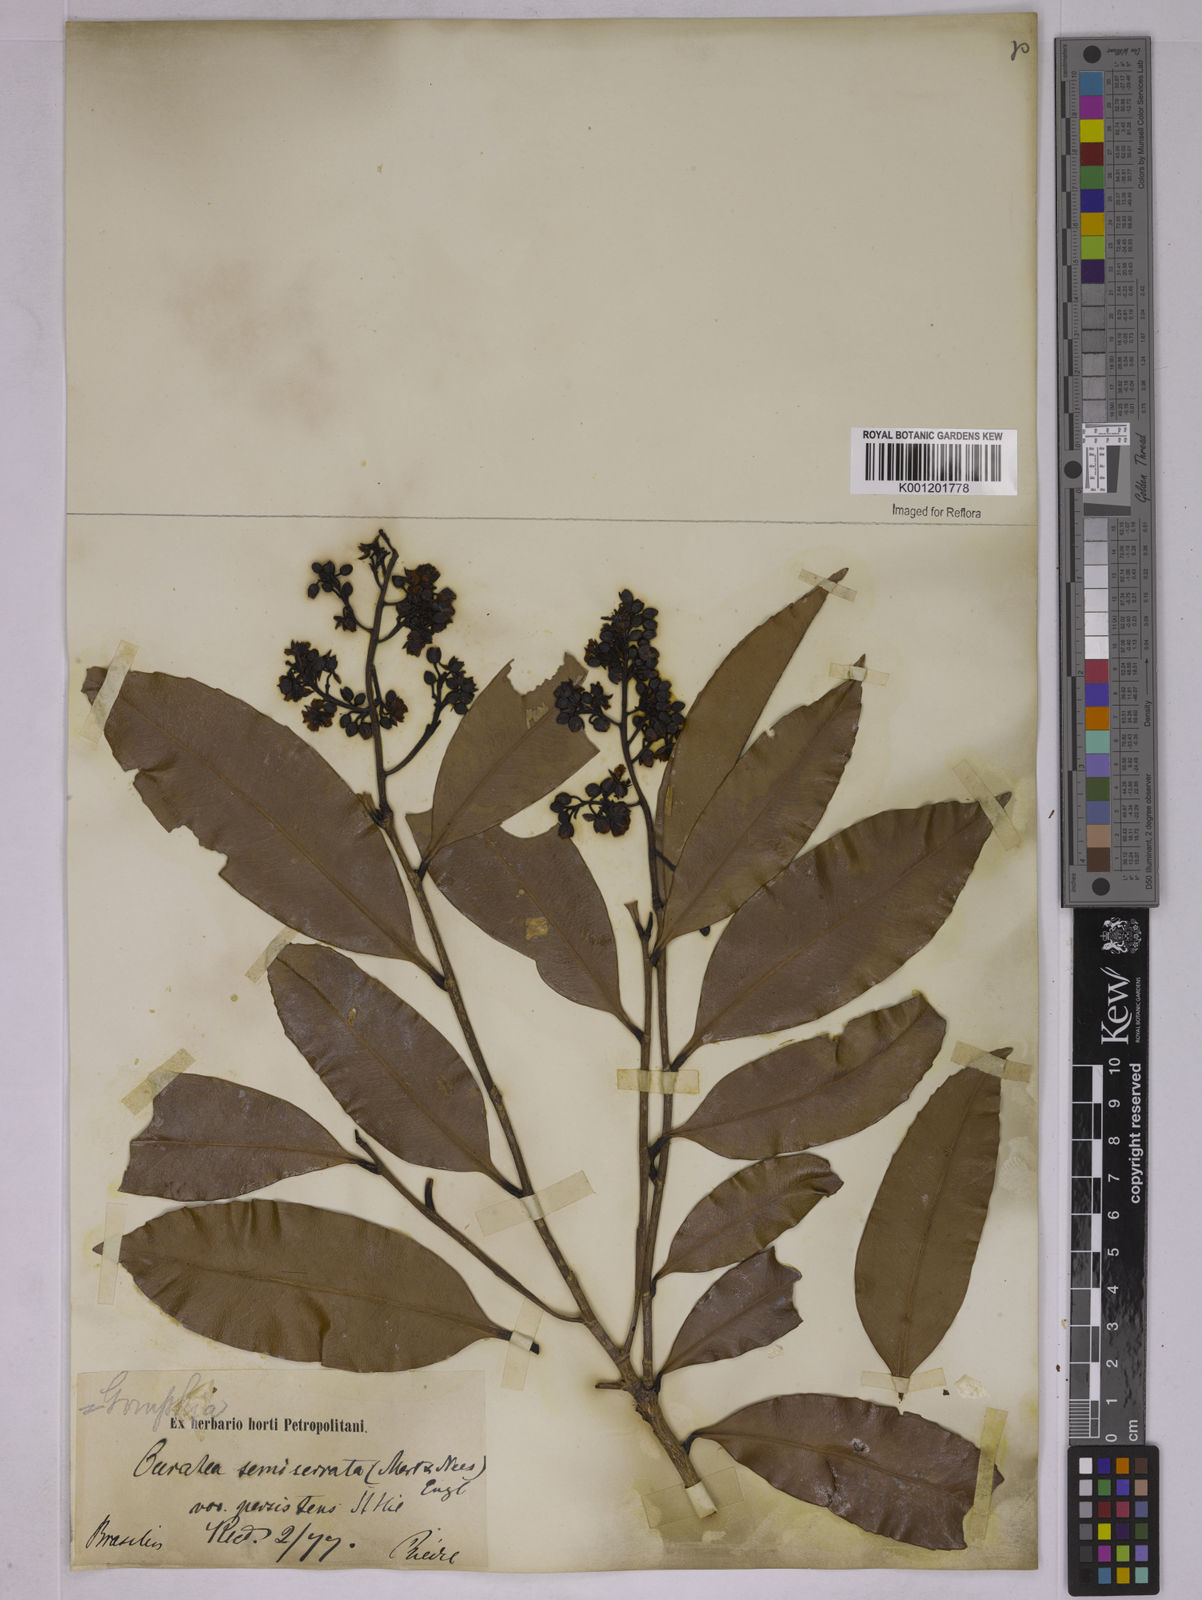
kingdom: Plantae
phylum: Tracheophyta
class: Magnoliopsida
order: Malpighiales
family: Ochnaceae
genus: Ouratea
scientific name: Ouratea semiserrata
